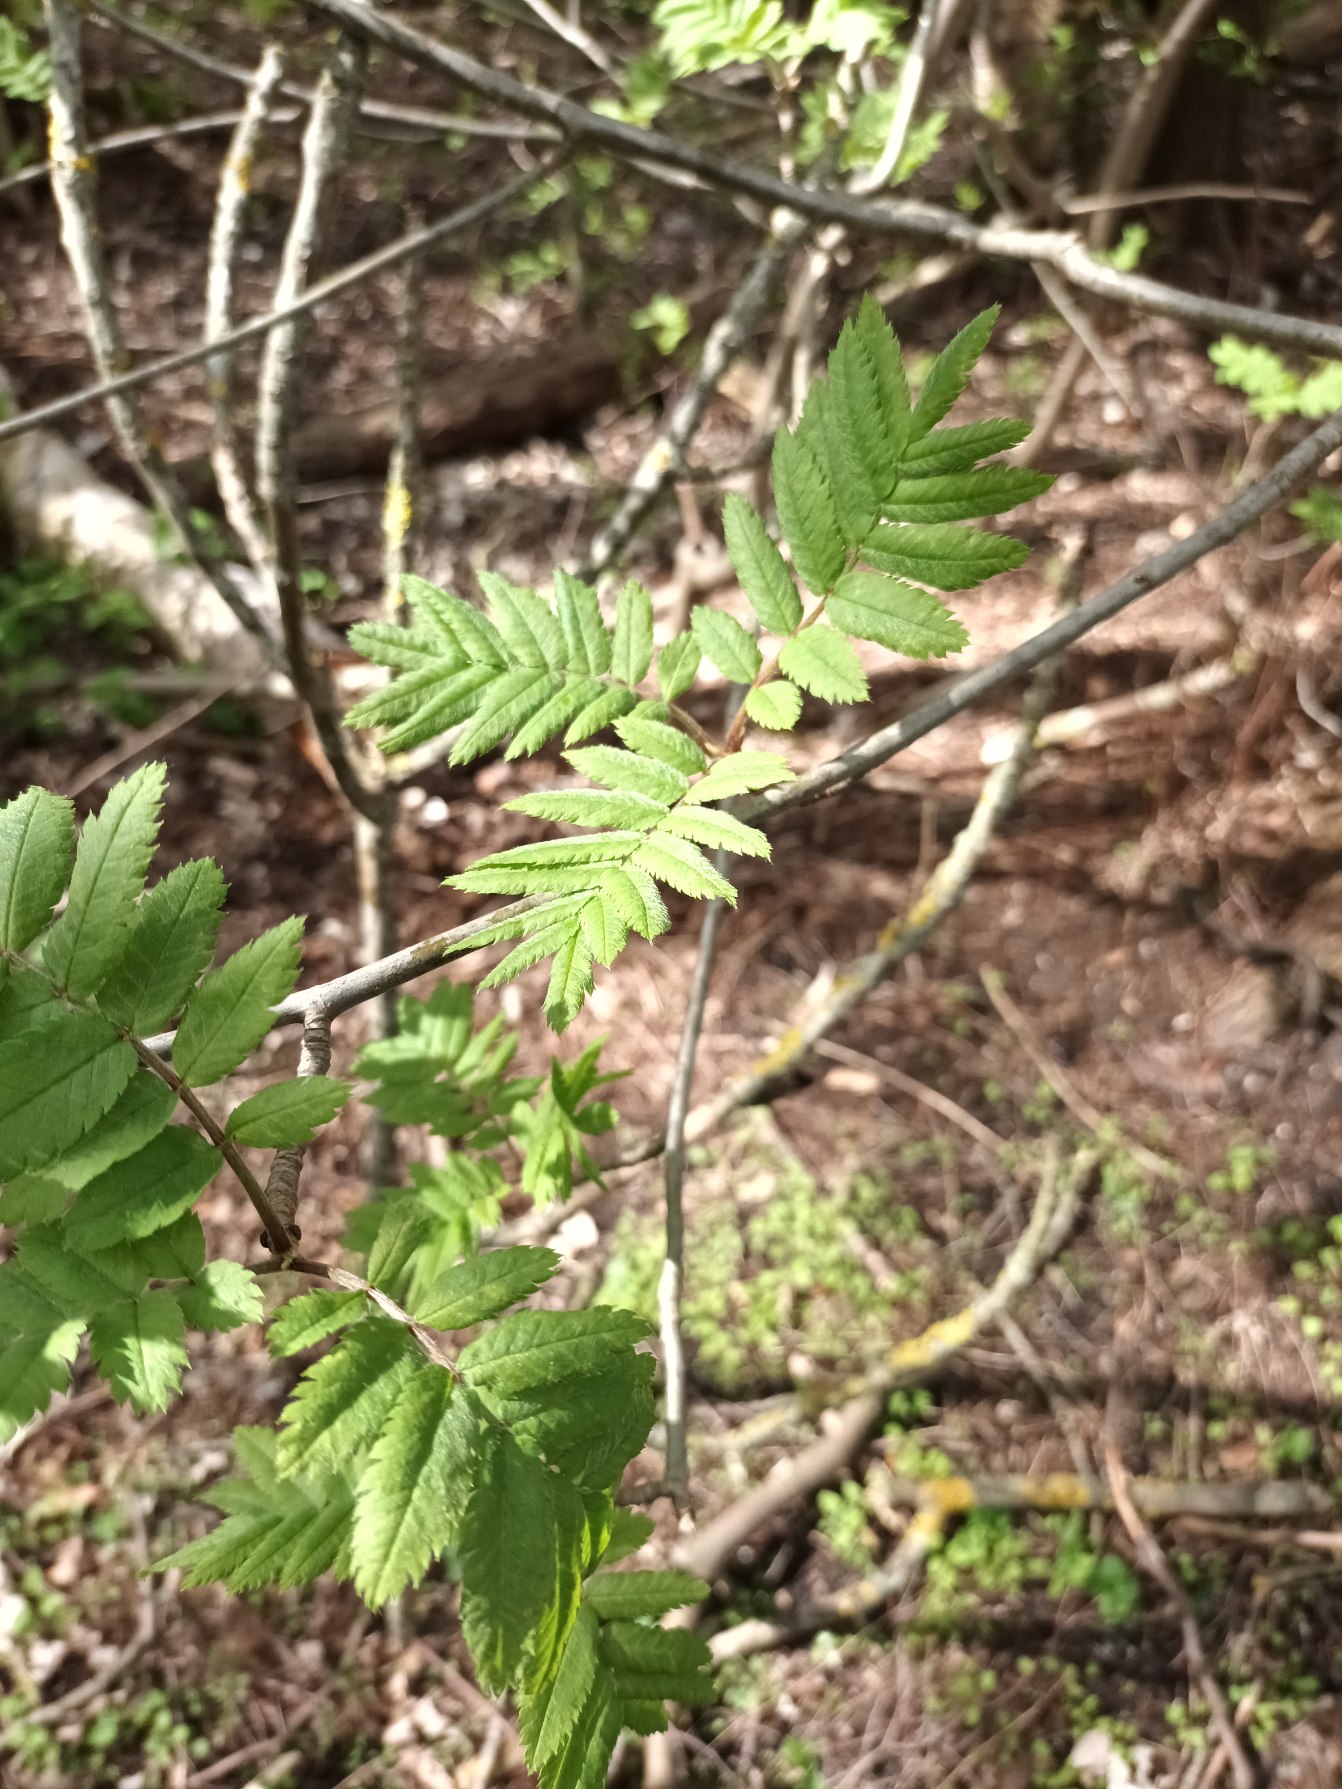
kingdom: Plantae
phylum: Tracheophyta
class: Magnoliopsida
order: Rosales
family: Rosaceae
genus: Sorbus
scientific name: Sorbus aucuparia
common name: Almindelig røn
